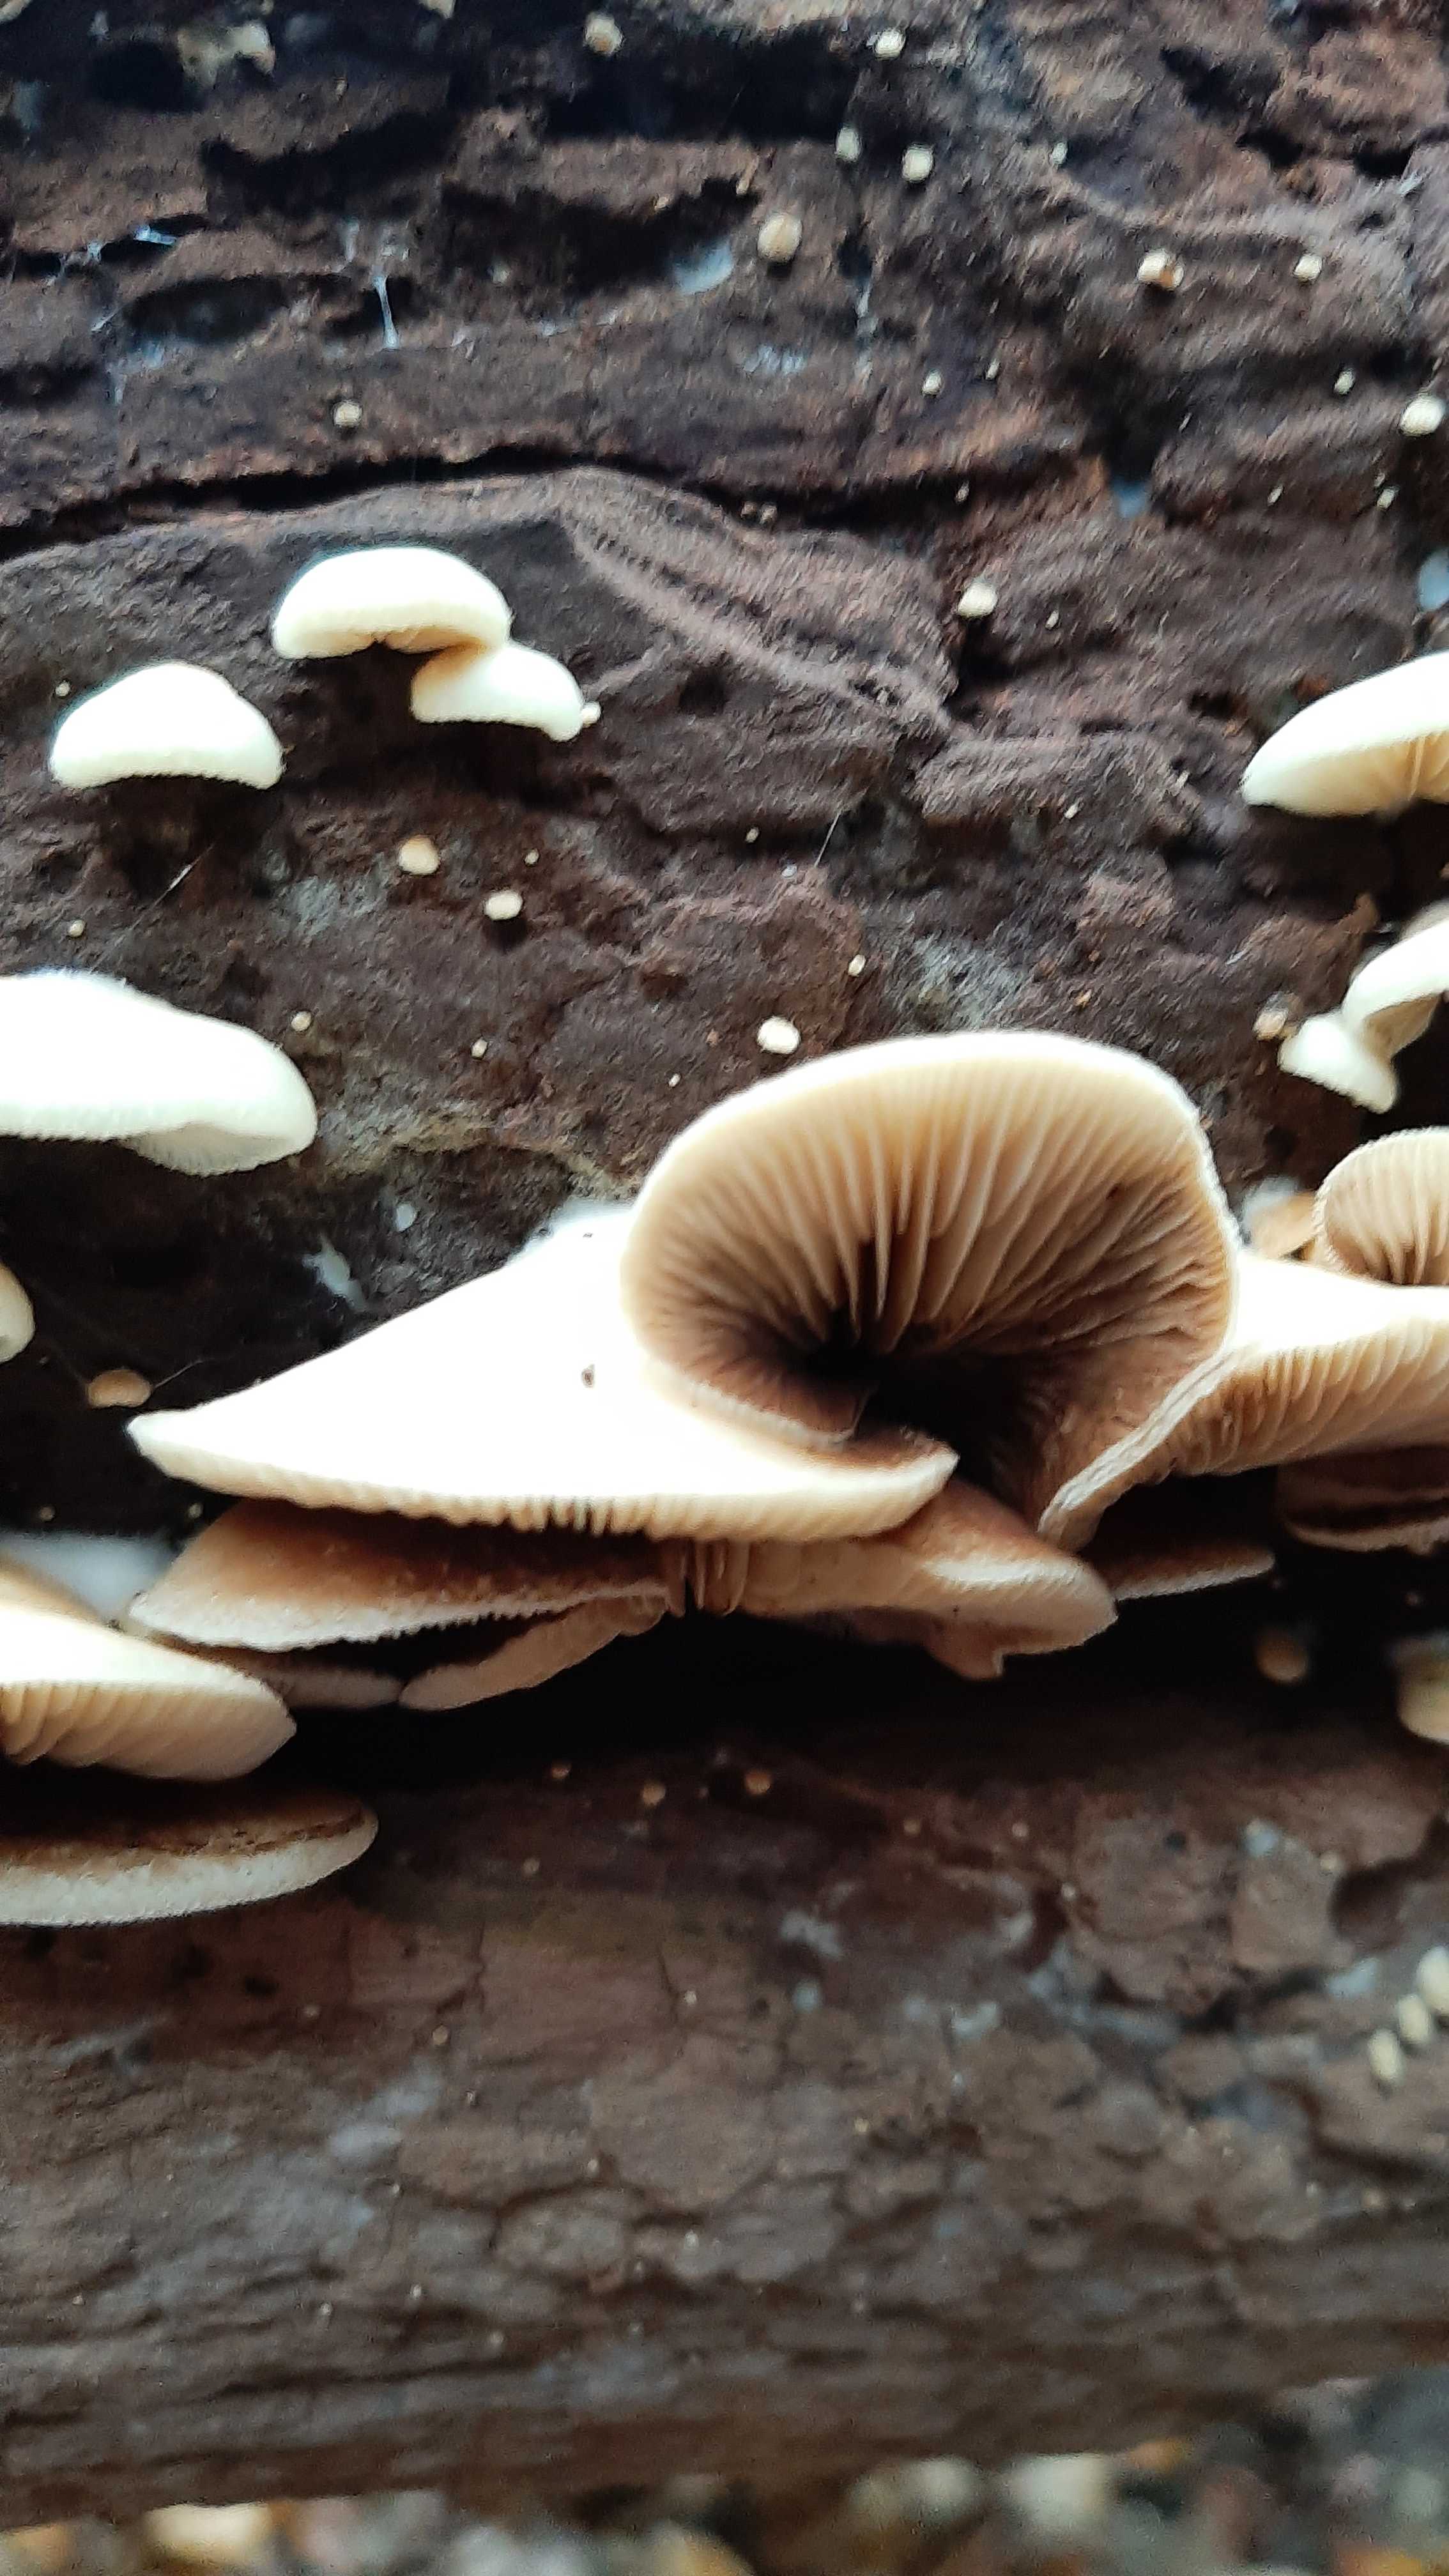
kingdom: Fungi
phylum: Basidiomycota
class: Agaricomycetes
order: Agaricales
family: Crepidotaceae
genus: Crepidotus
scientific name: Crepidotus mollis
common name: blød muslingesvamp
